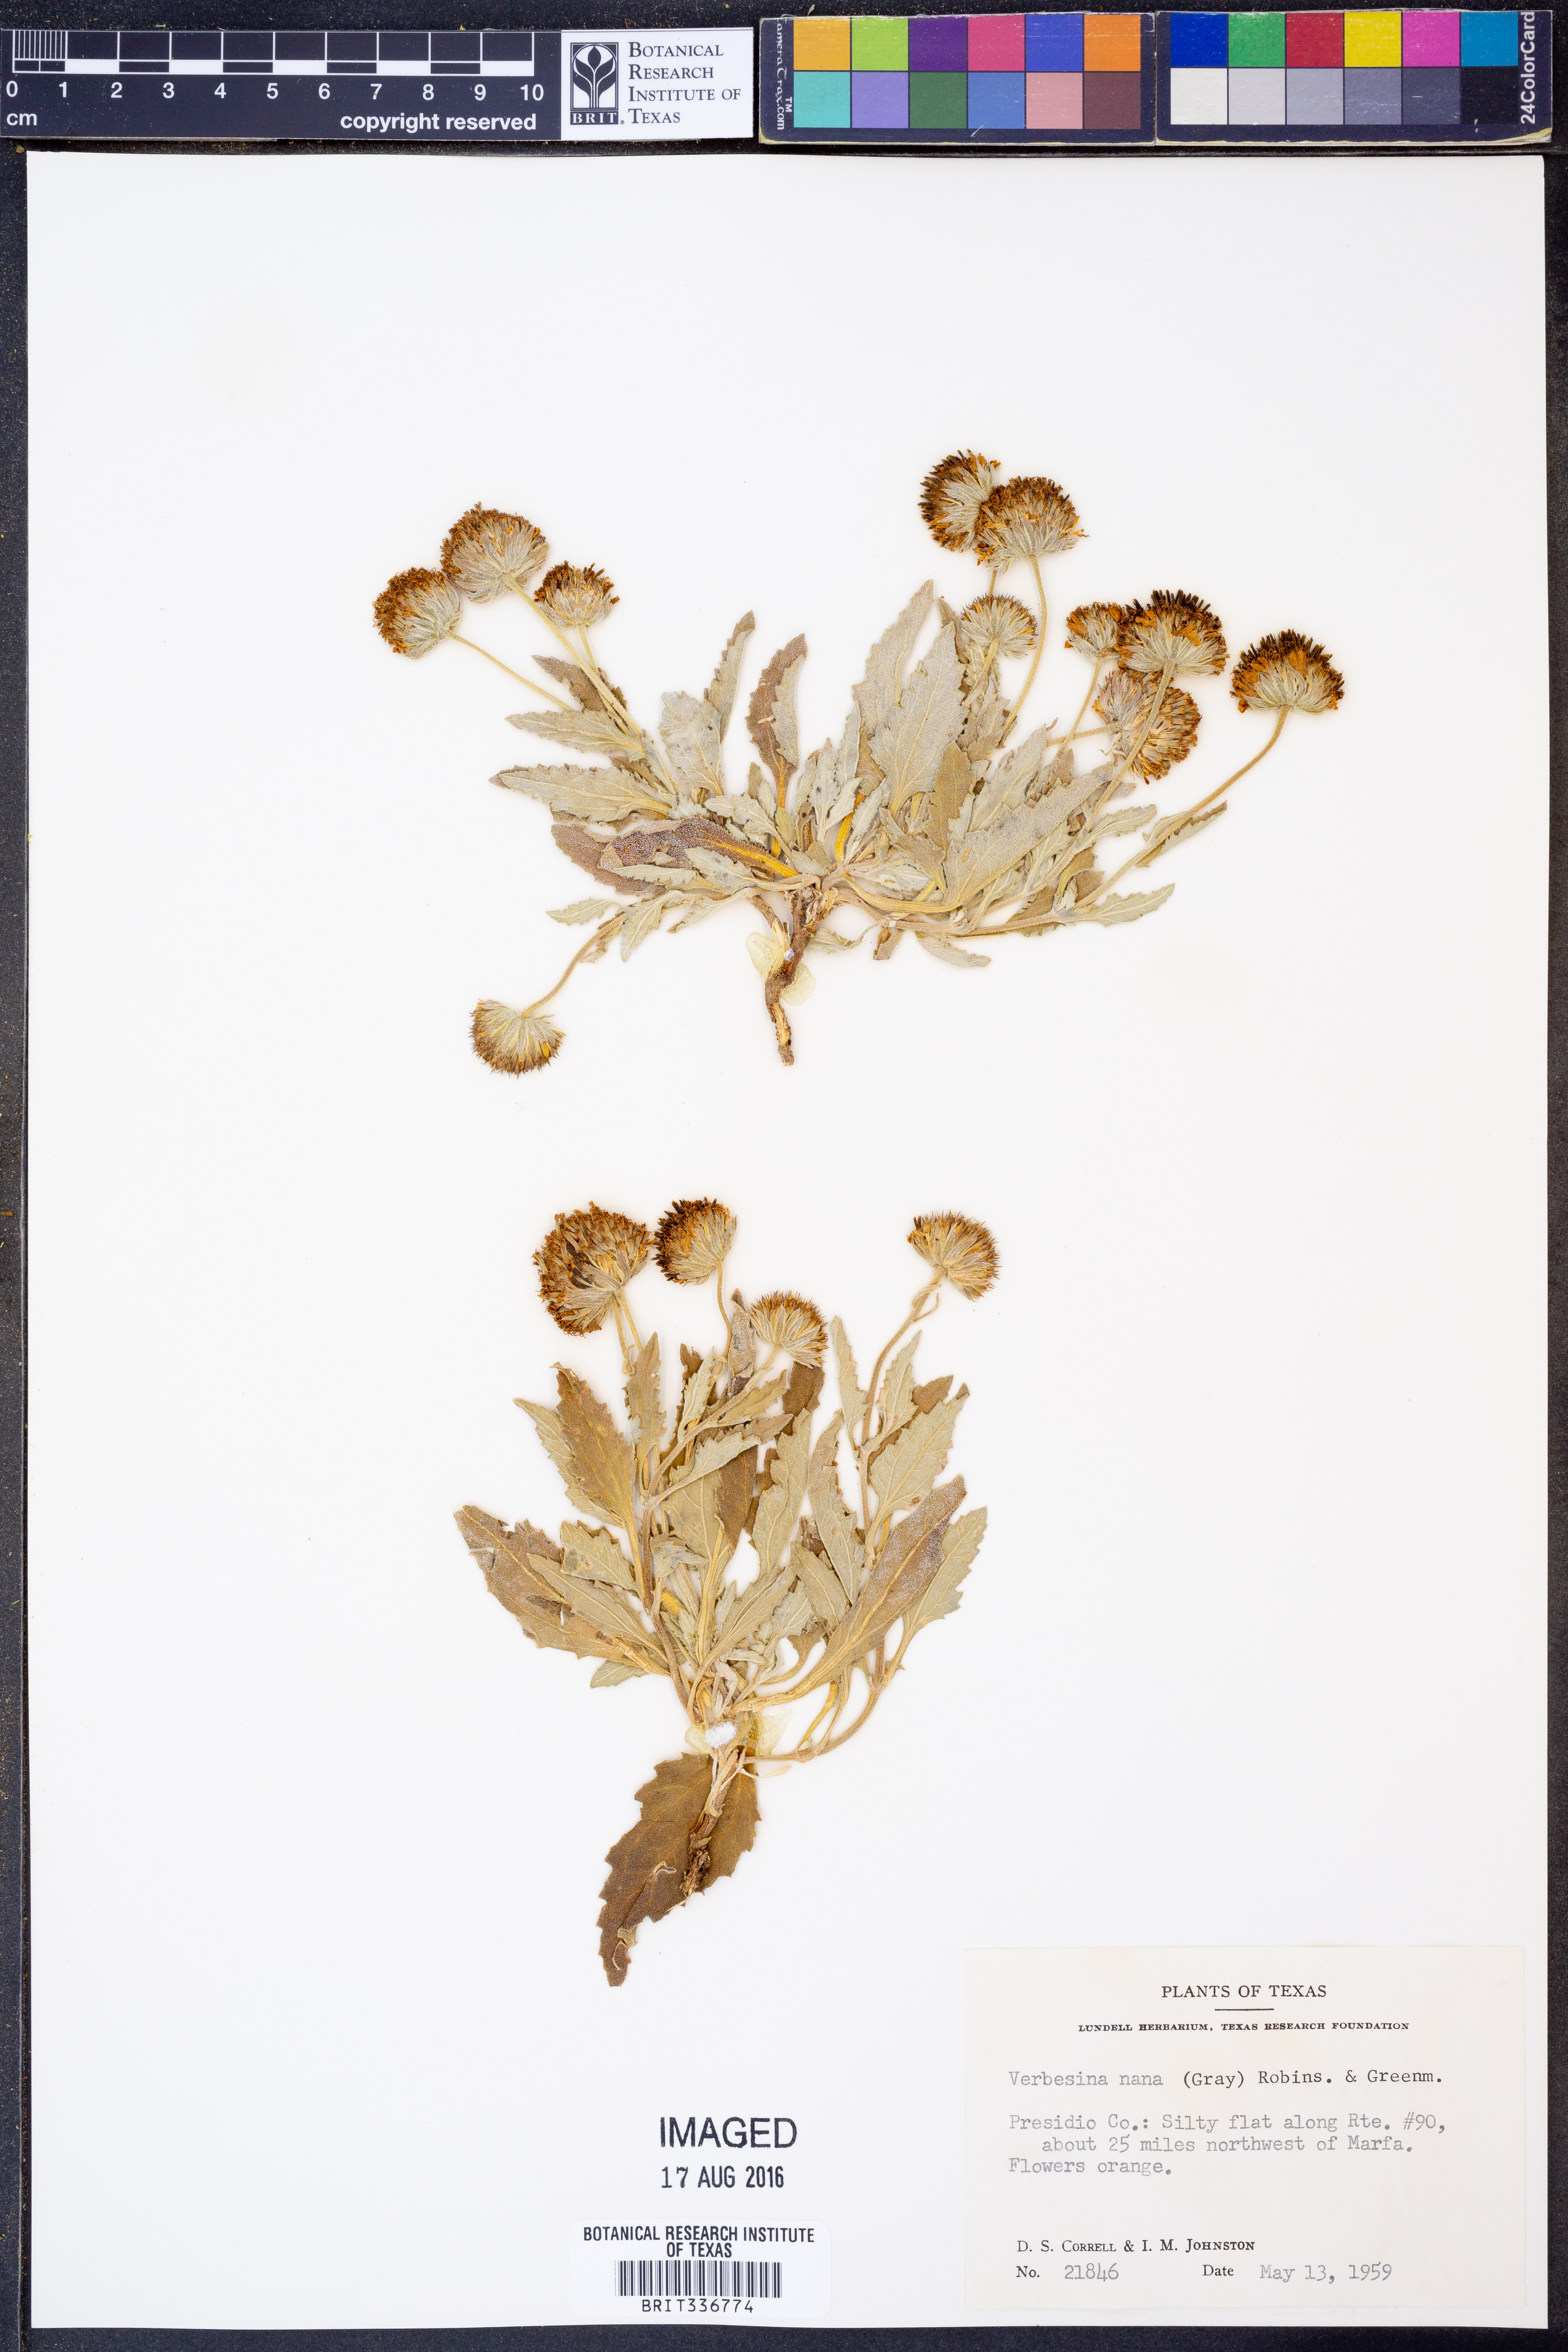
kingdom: Plantae
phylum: Tracheophyta
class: Magnoliopsida
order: Asterales
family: Asteraceae
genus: Verbesina
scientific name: Verbesina nana
